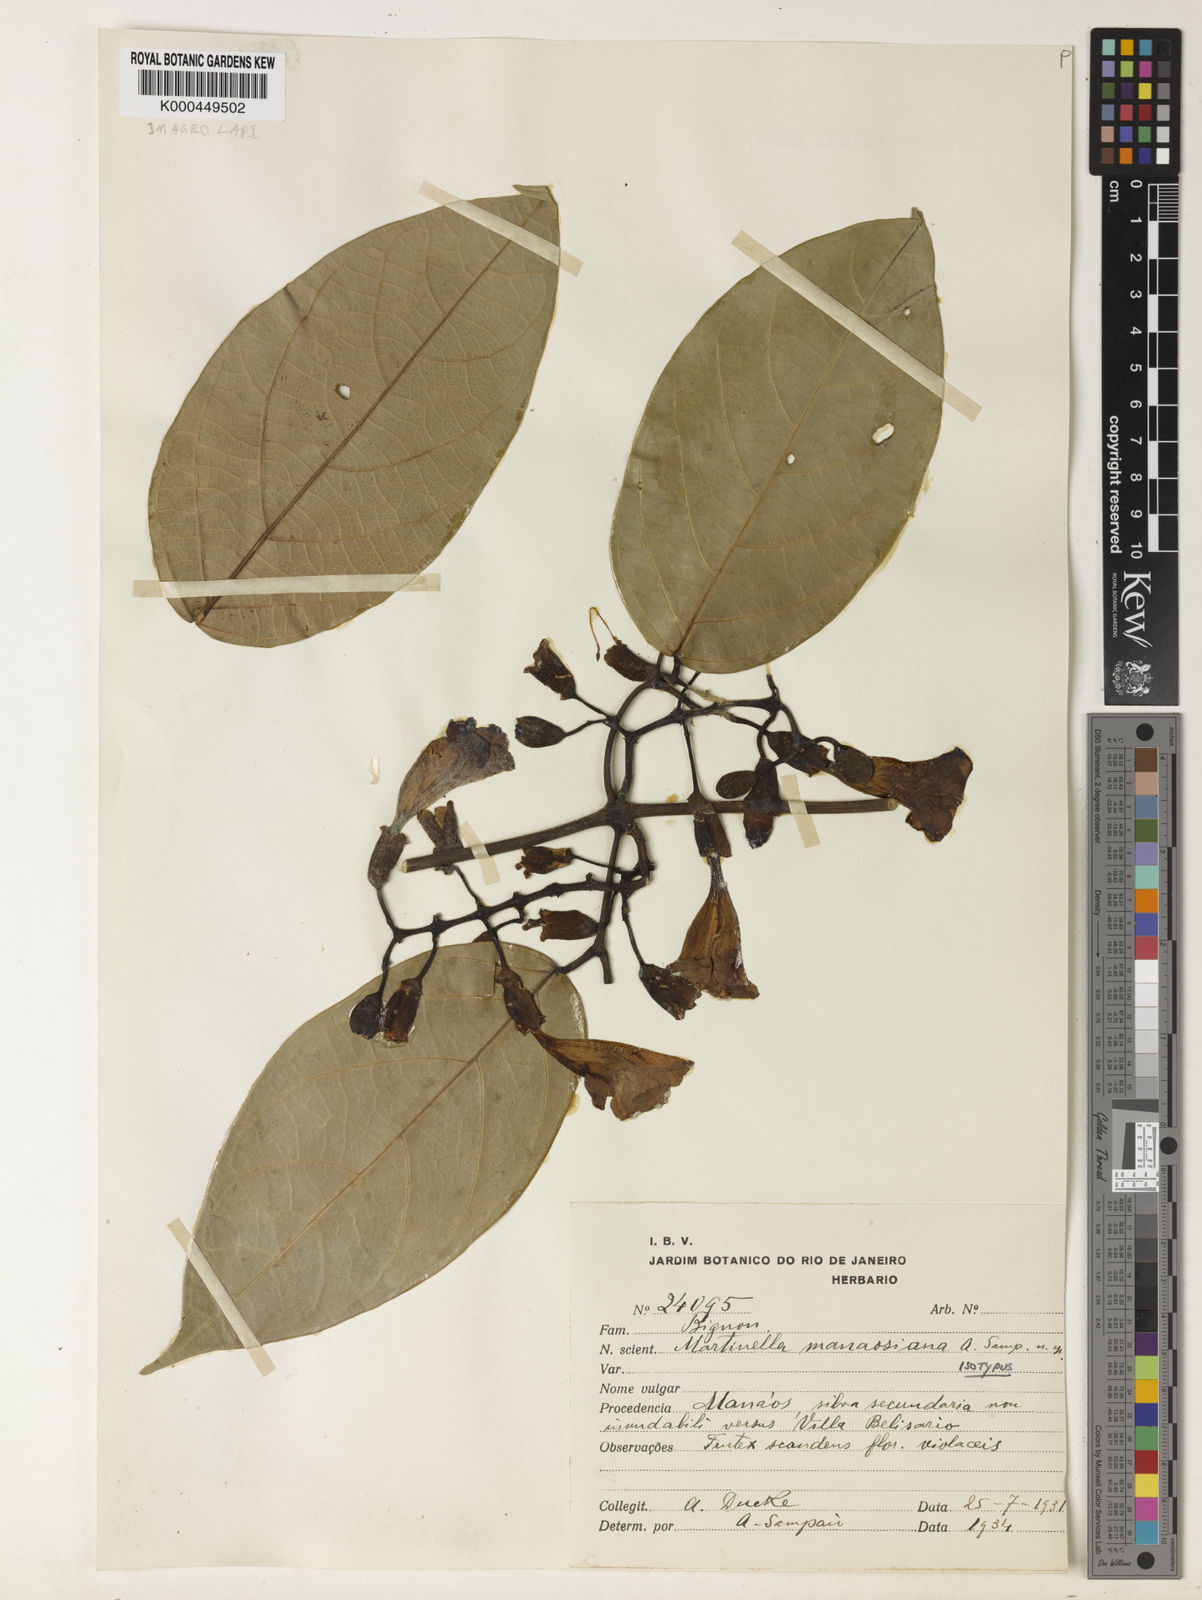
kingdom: Plantae
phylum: Tracheophyta
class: Magnoliopsida
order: Lamiales
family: Bignoniaceae
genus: Martinella
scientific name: Martinella iquitoensis
